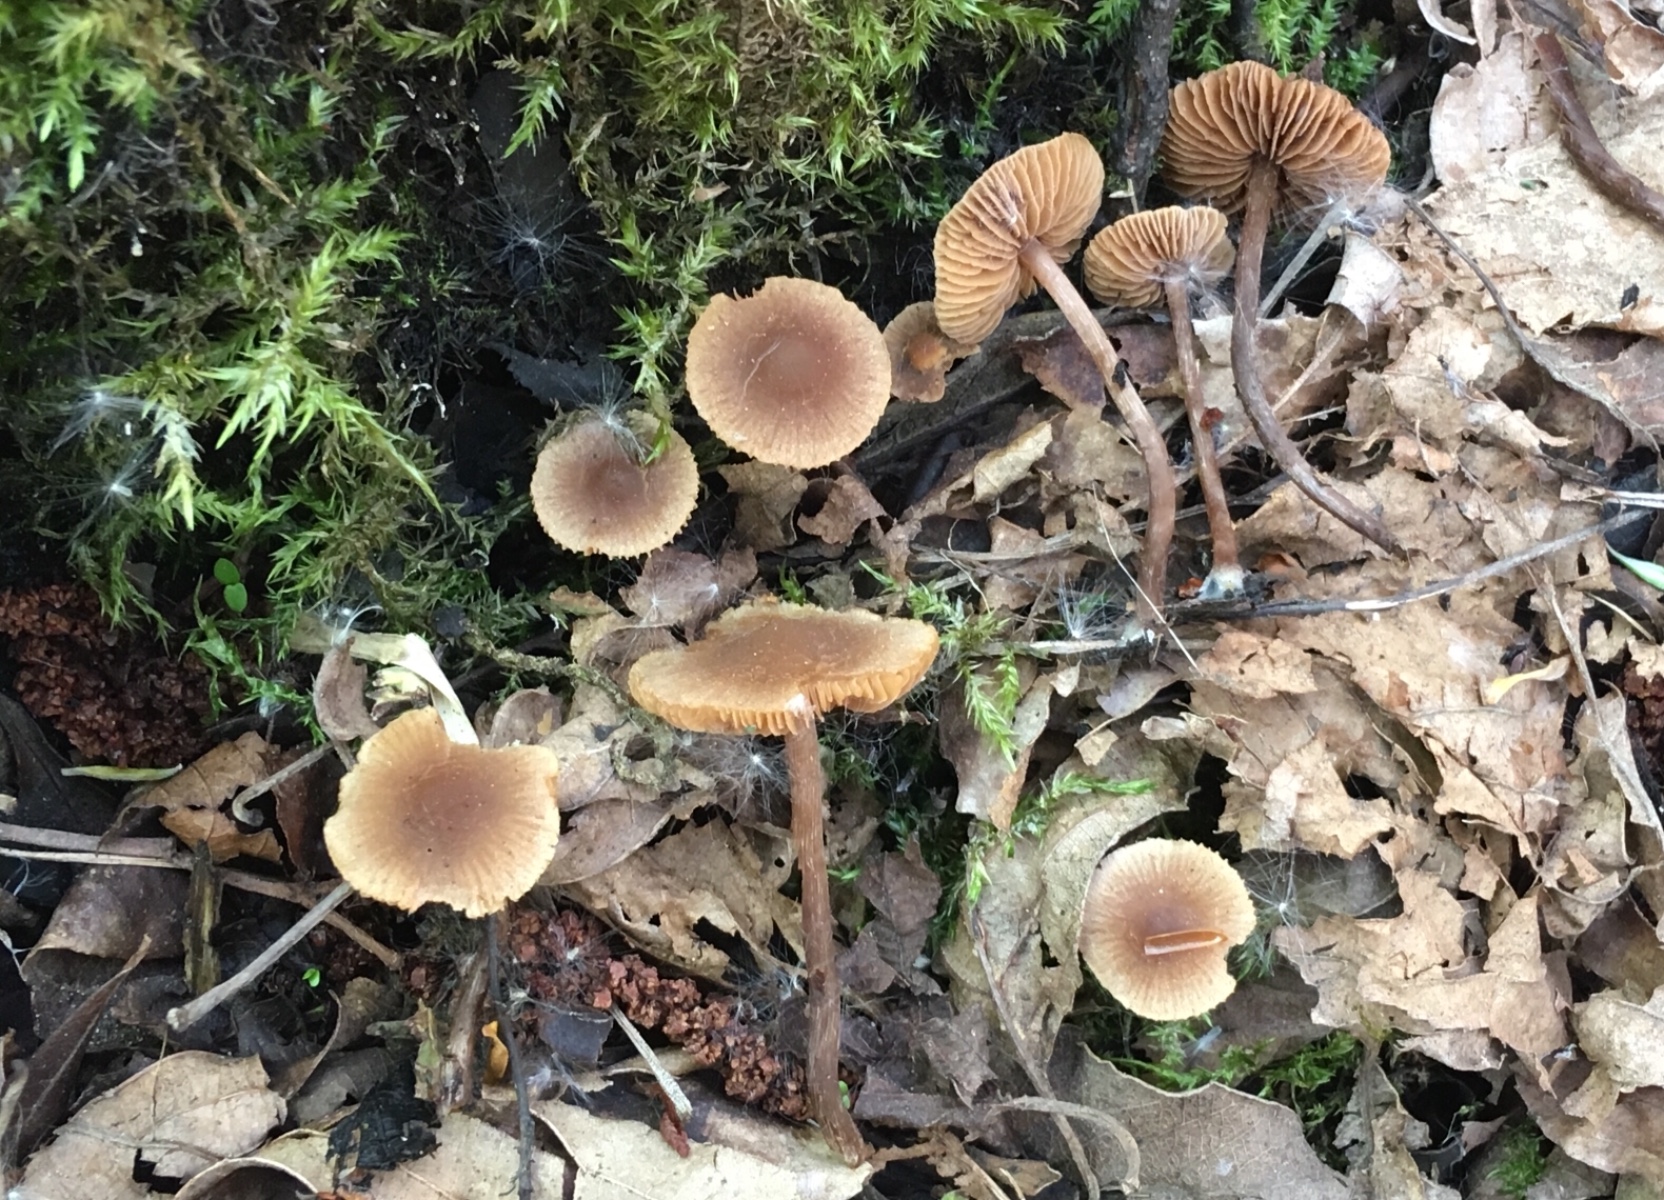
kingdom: Fungi
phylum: Basidiomycota
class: Agaricomycetes
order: Agaricales
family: Hymenogastraceae
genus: Naucoria
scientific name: Naucoria scolecina
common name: mørk elle-knaphat
